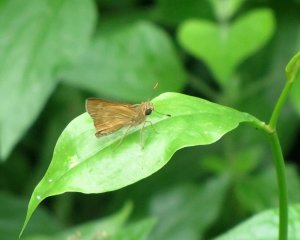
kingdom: Animalia
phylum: Arthropoda
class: Insecta
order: Lepidoptera
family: Hesperiidae
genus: Wallengrenia
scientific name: Wallengrenia otho
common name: Southern Broken-Dash
